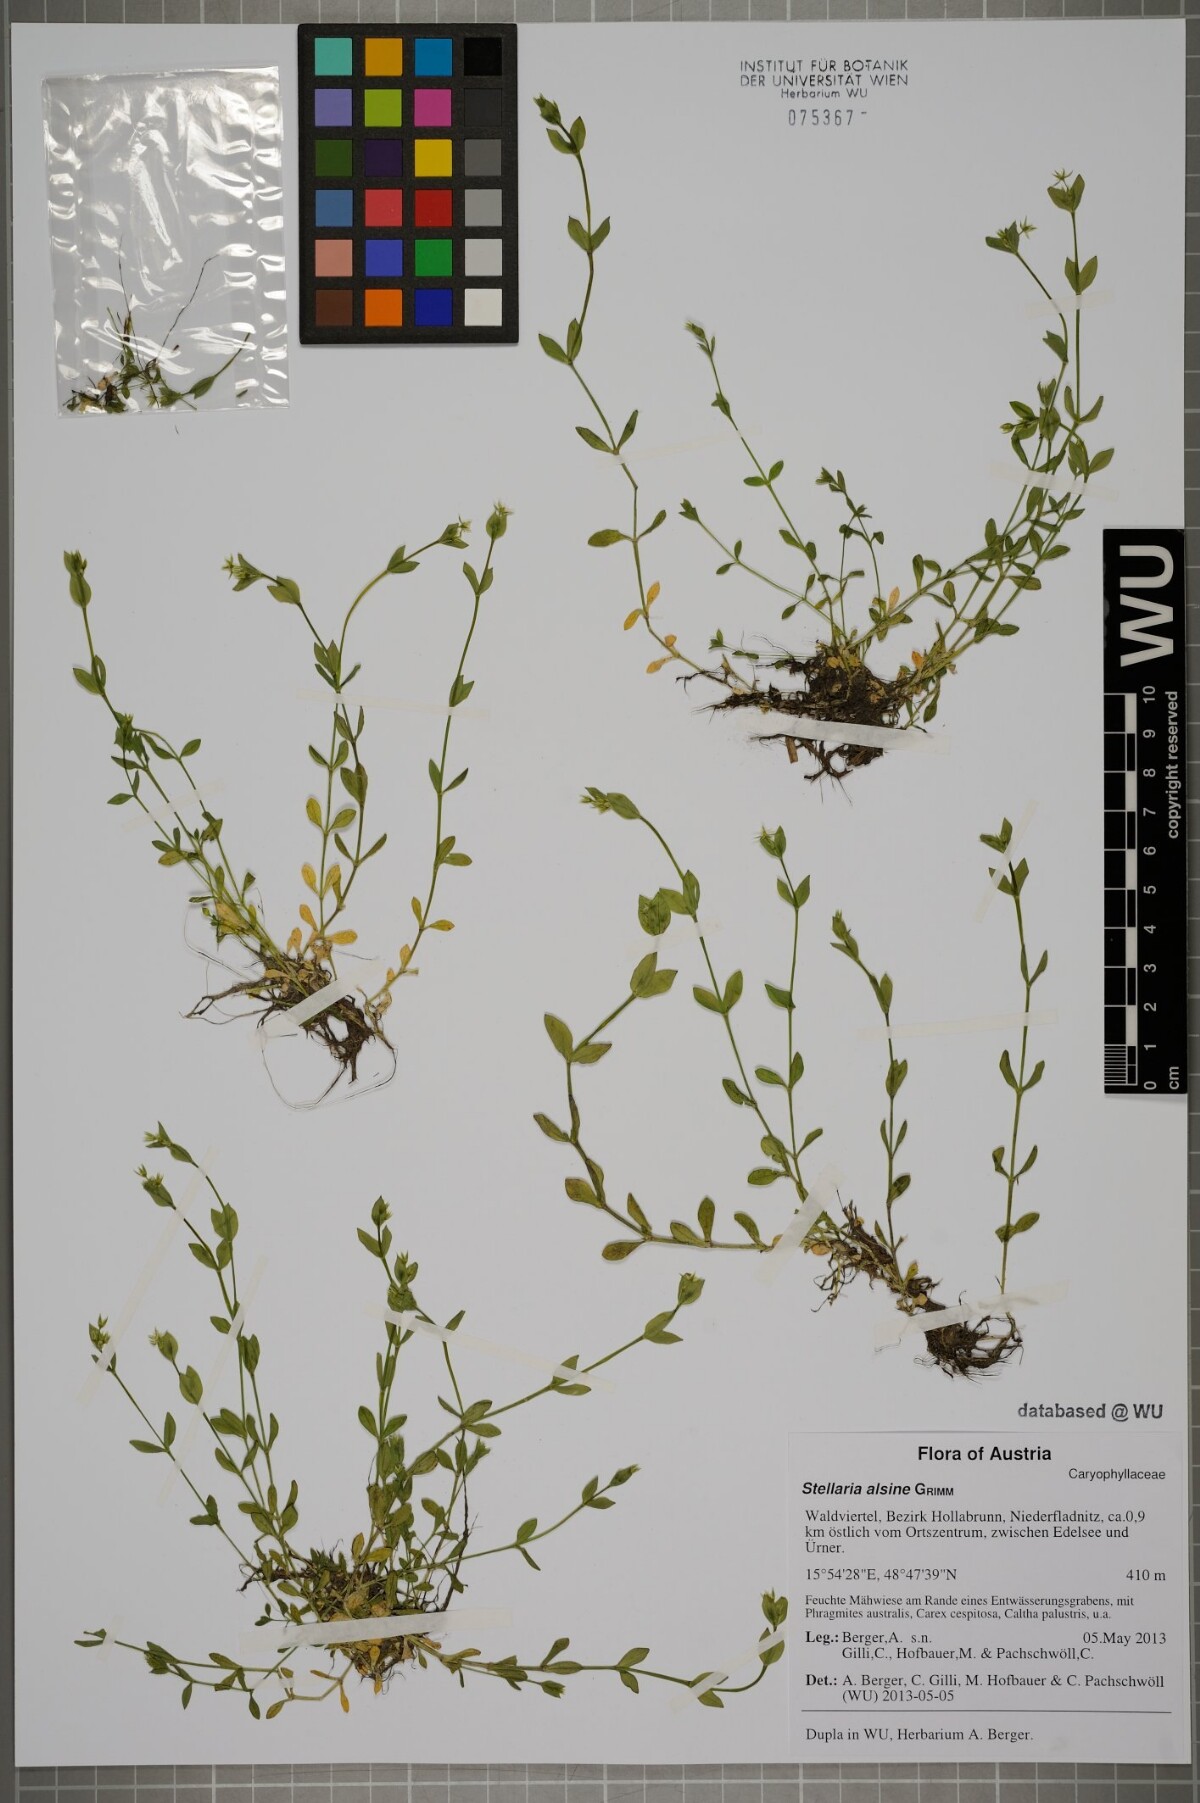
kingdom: Plantae
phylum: Tracheophyta
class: Magnoliopsida
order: Caryophyllales
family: Caryophyllaceae
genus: Stellaria
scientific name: Stellaria alsine
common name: Bog stitchwort
